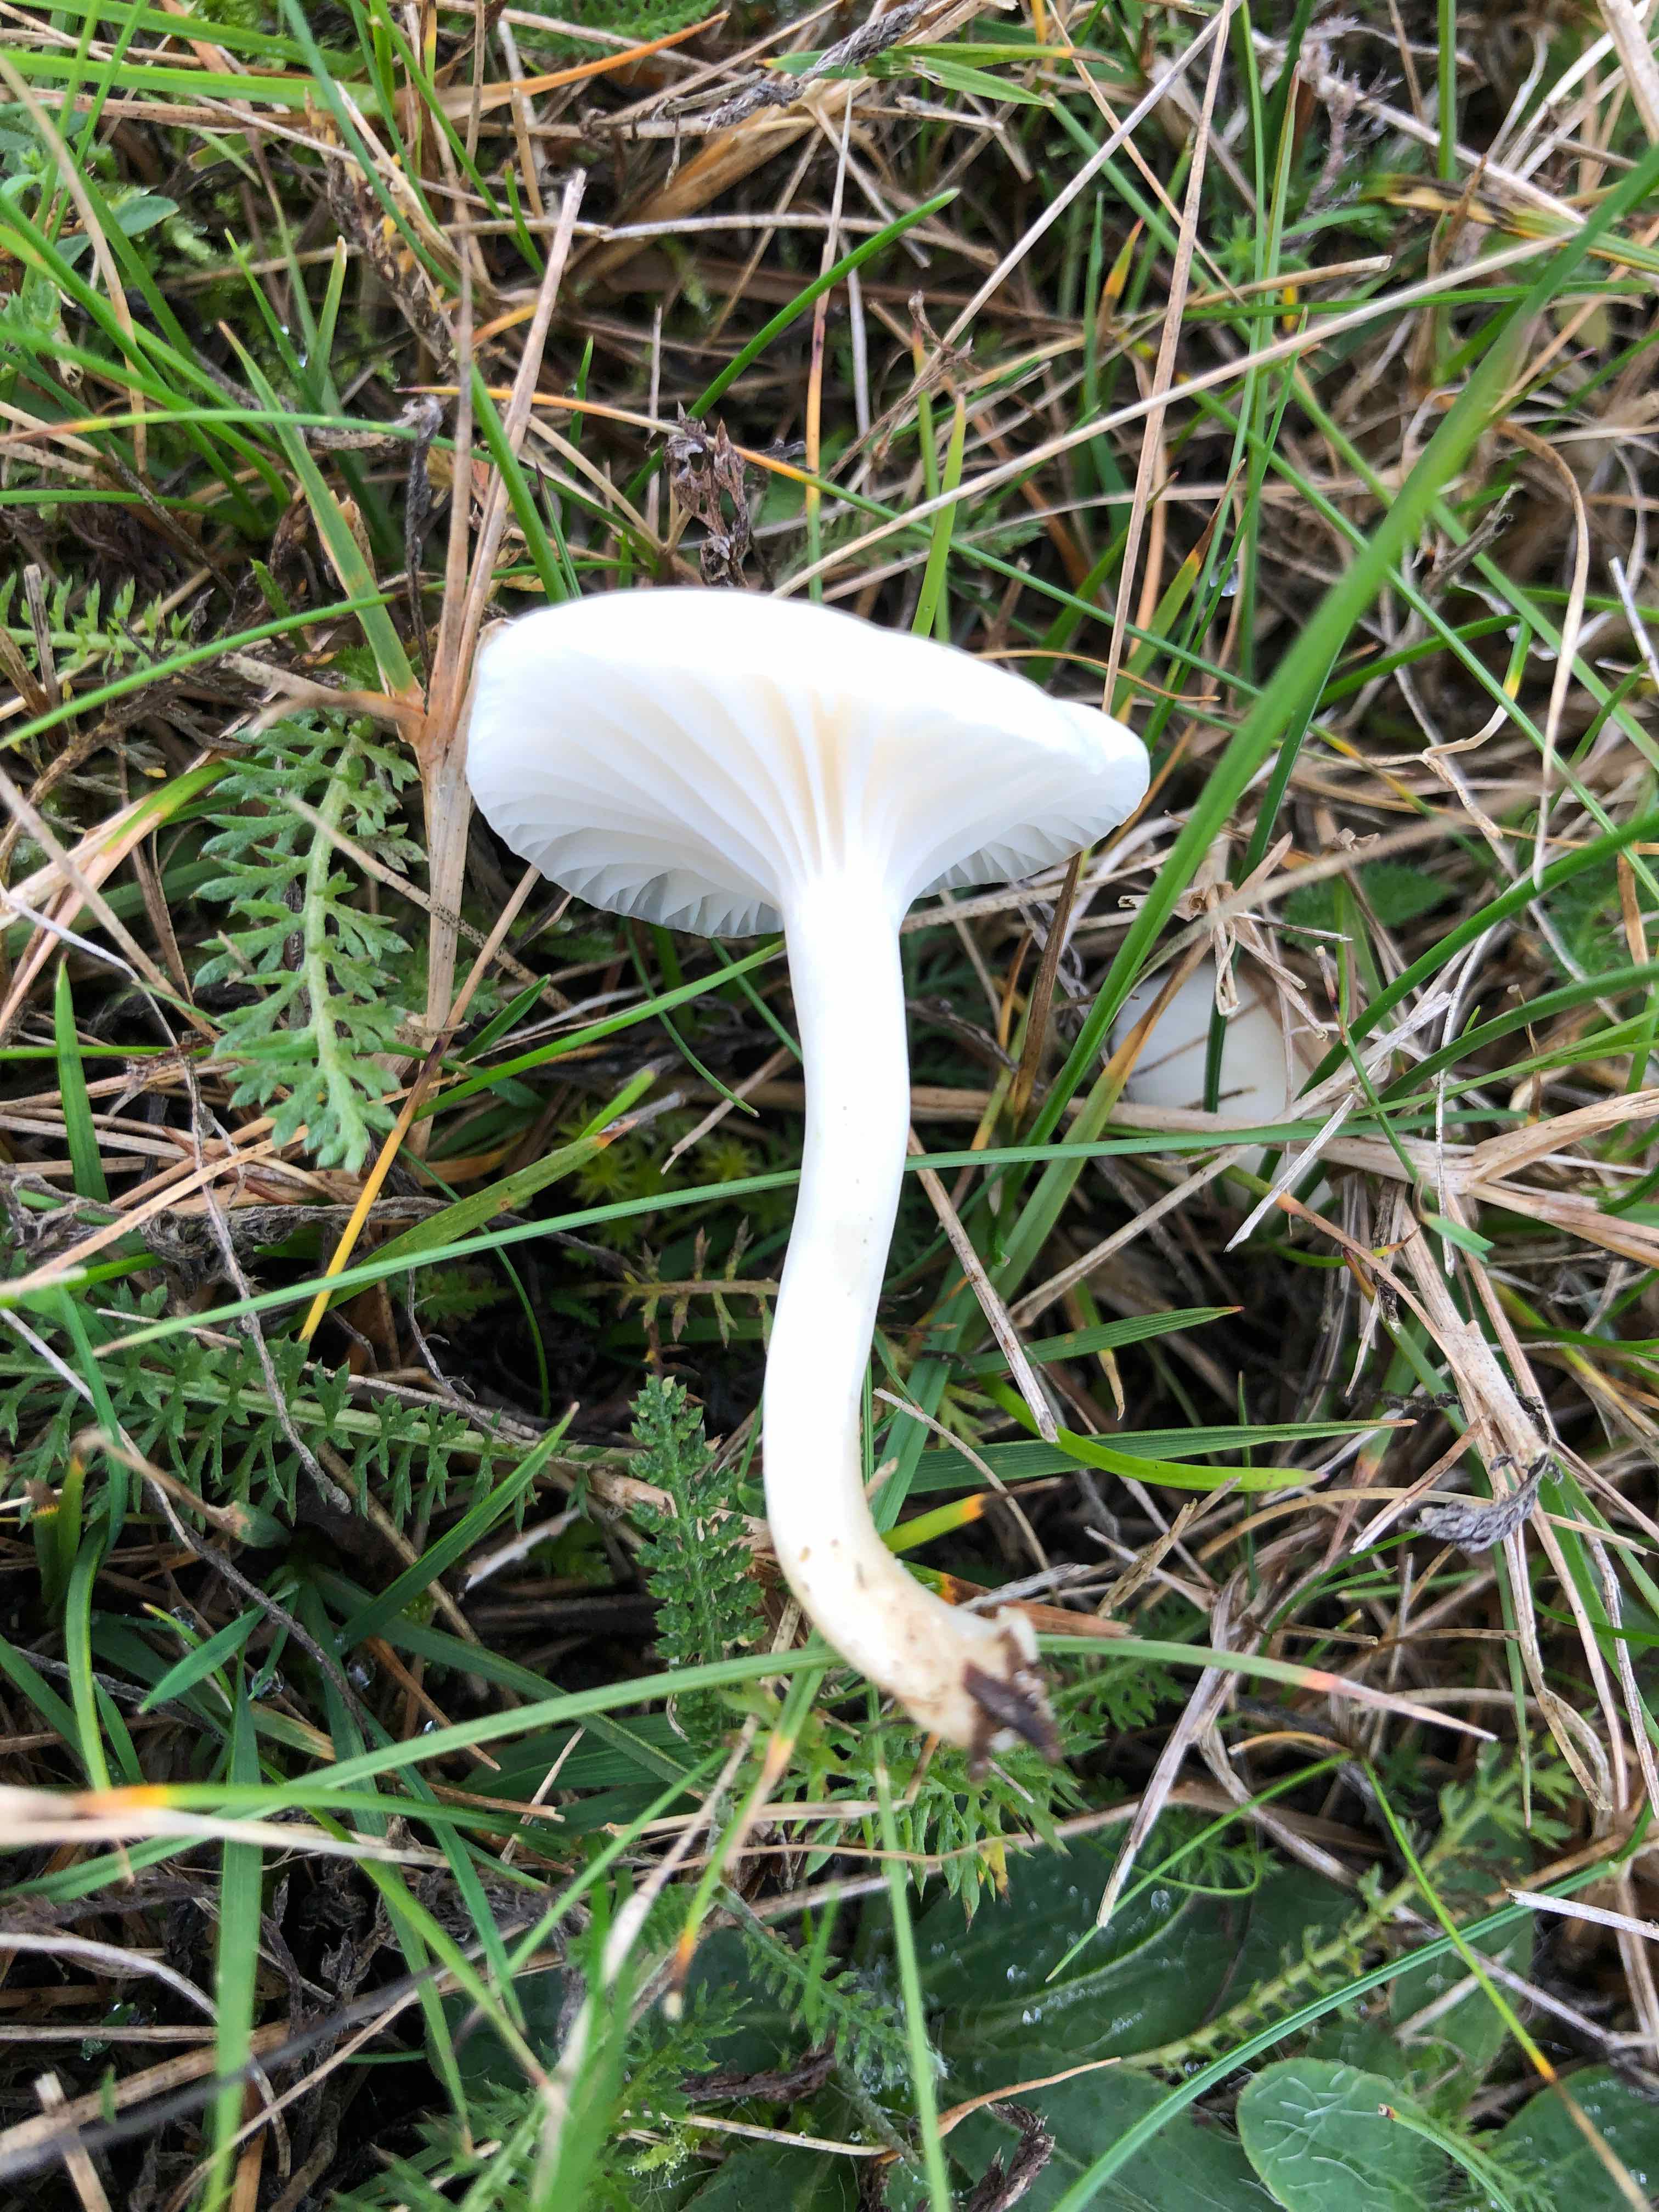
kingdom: Fungi
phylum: Basidiomycota
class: Agaricomycetes
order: Agaricales
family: Hygrophoraceae
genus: Cuphophyllus
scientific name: Cuphophyllus virgineus
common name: snehvid vokshat
